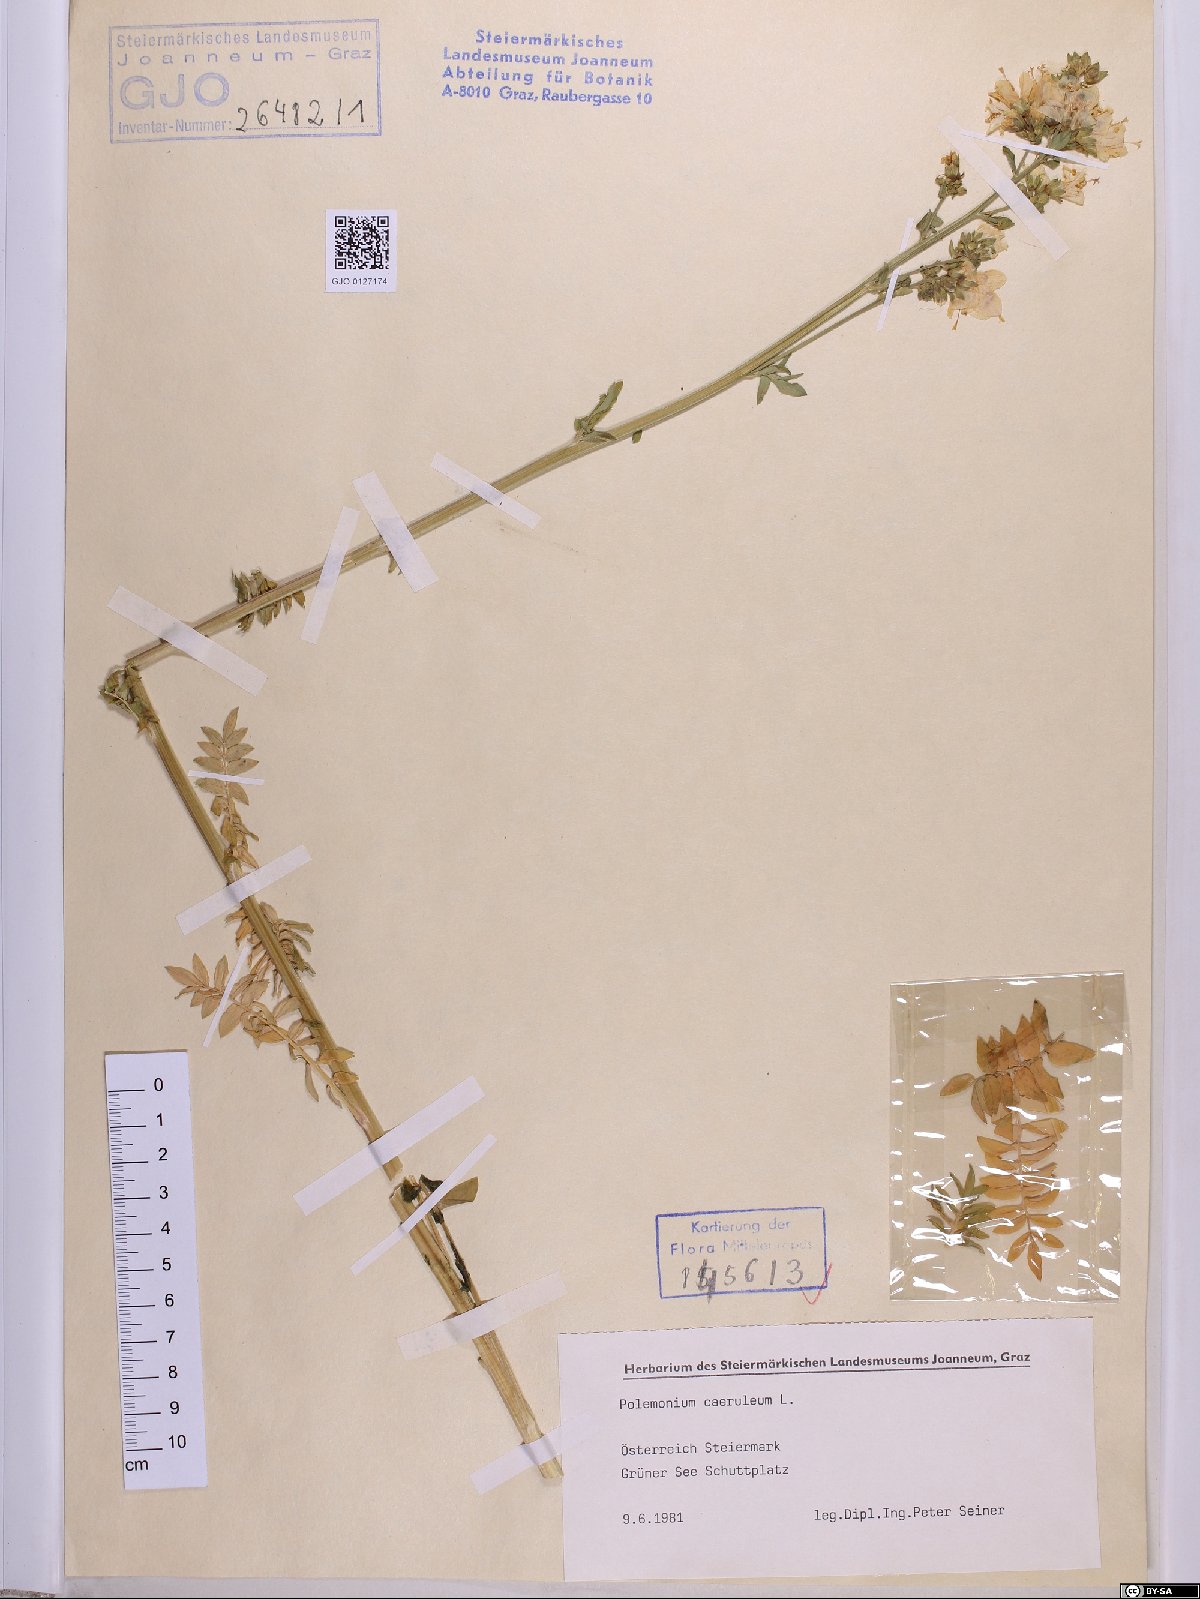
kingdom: Plantae
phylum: Tracheophyta
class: Magnoliopsida
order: Ericales
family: Polemoniaceae
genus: Polemonium
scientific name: Polemonium caeruleum
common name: Jacob's-ladder
